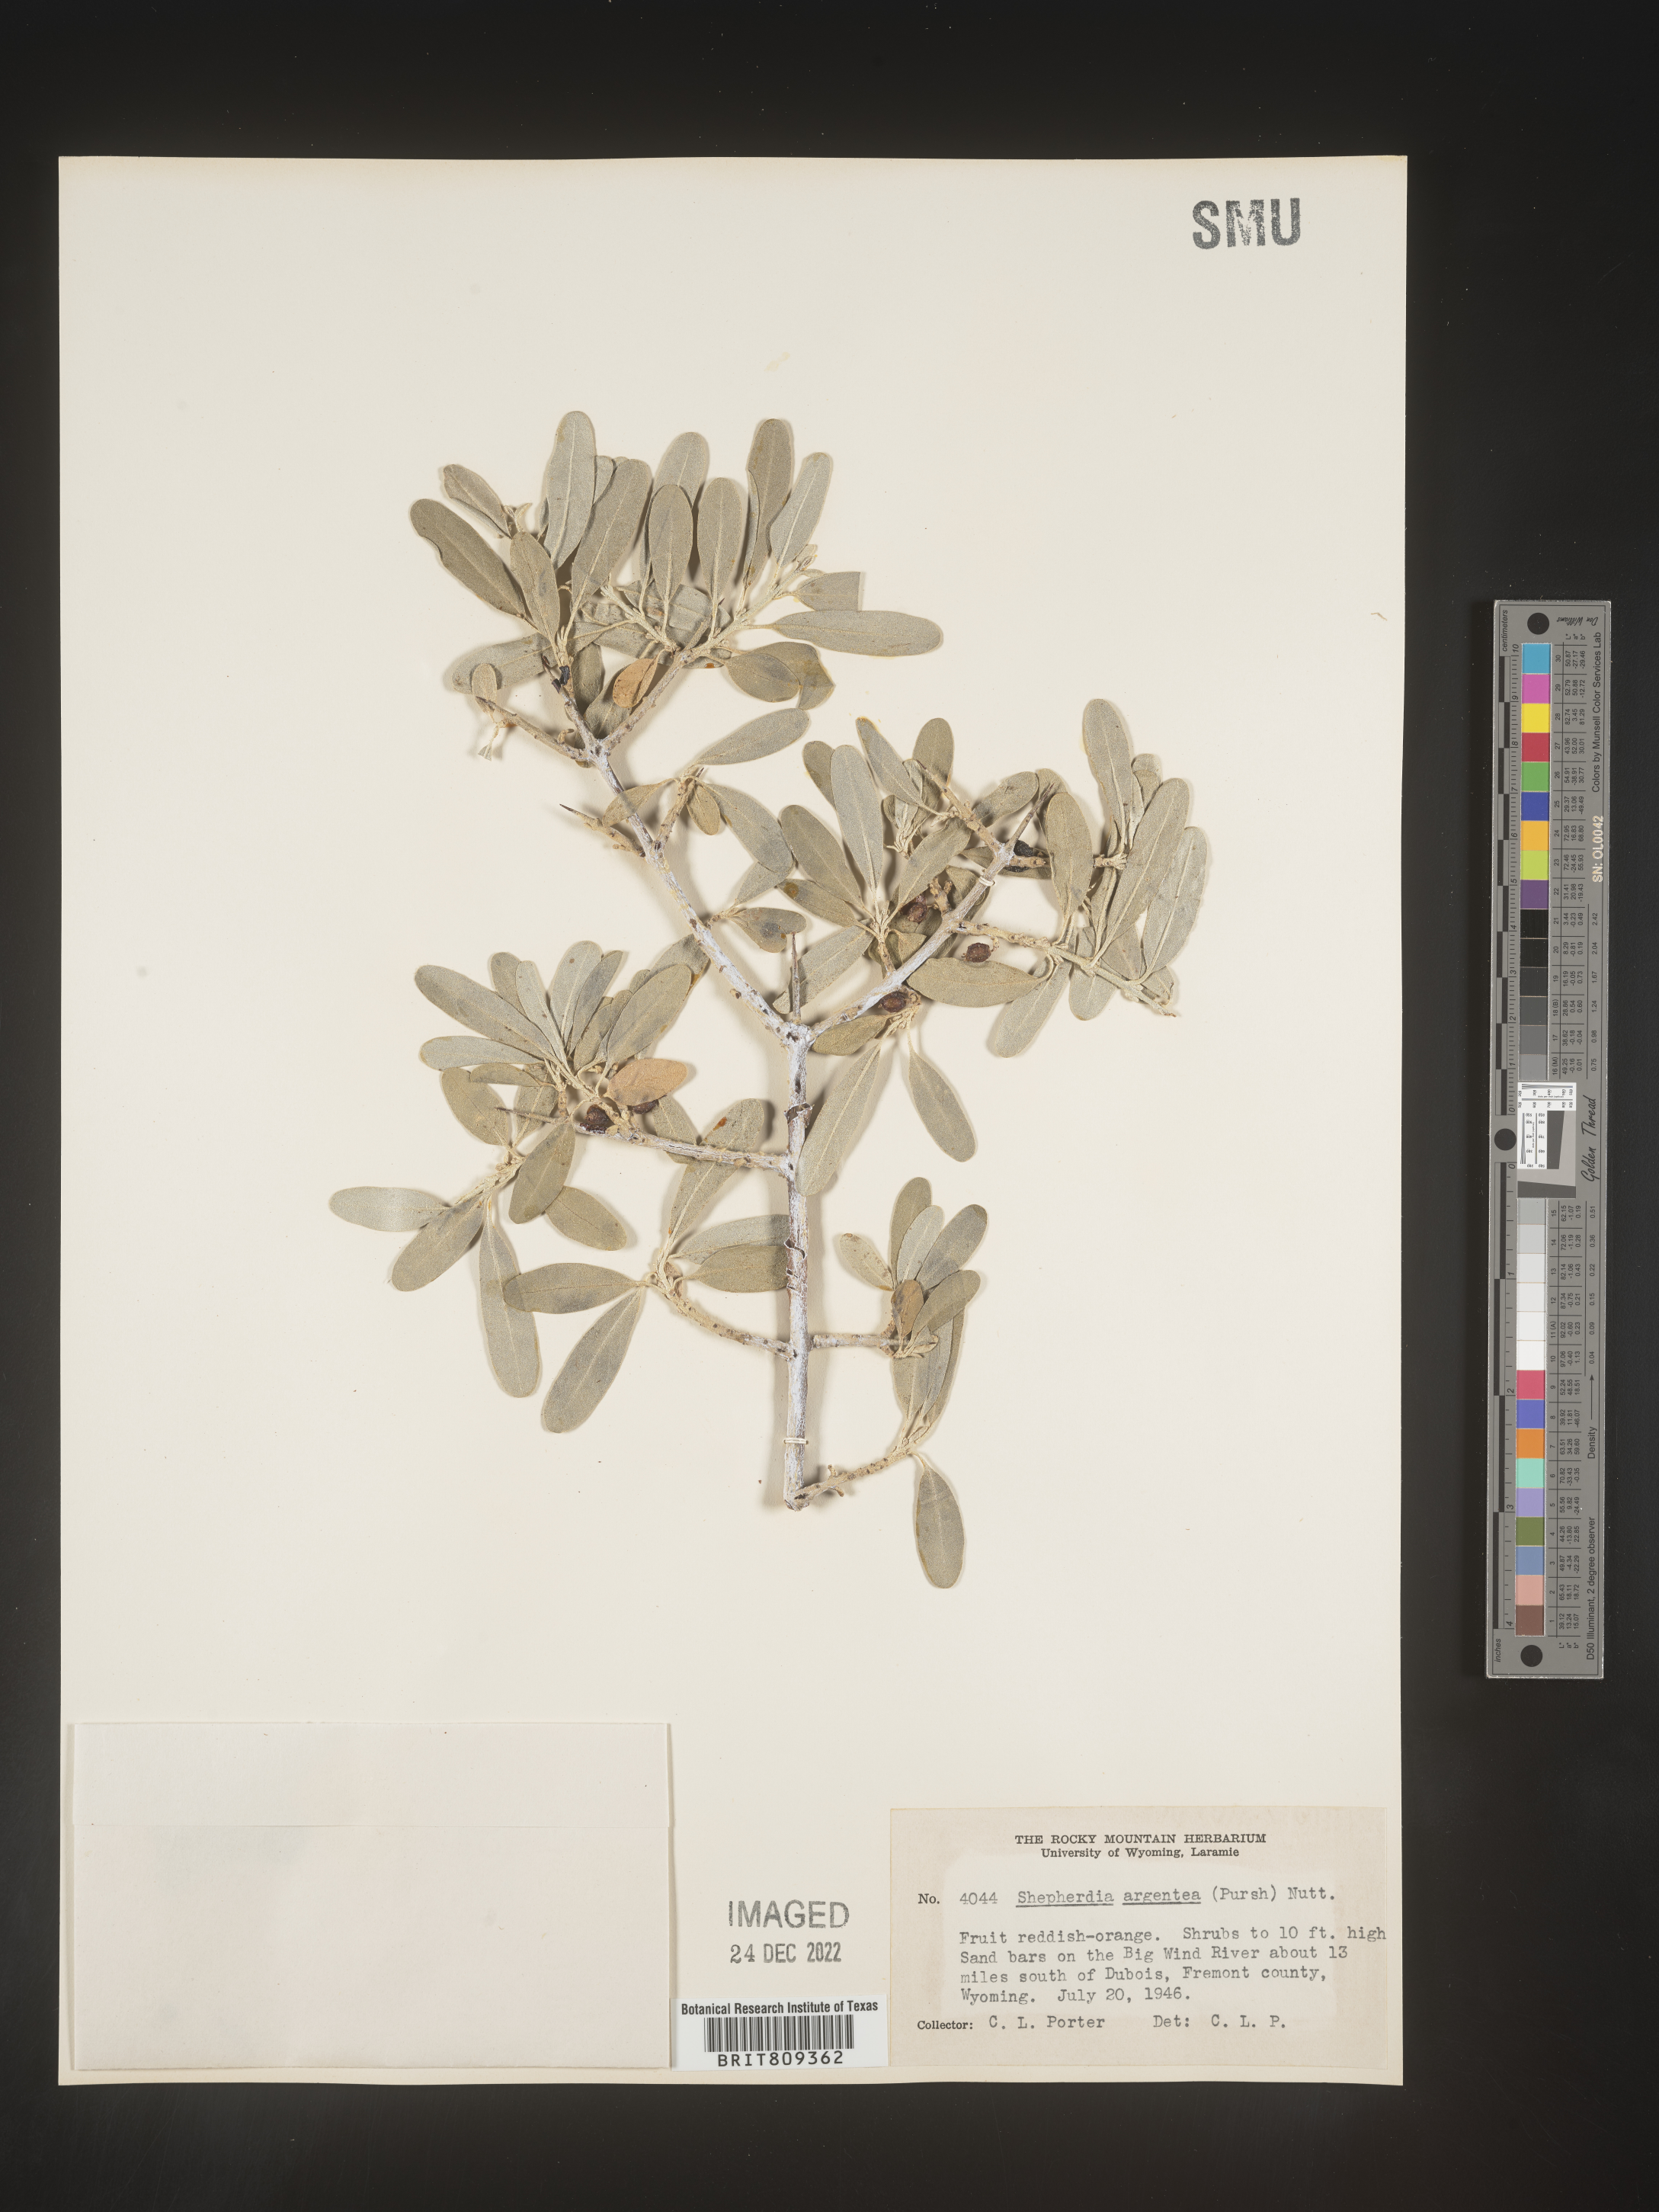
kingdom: Plantae
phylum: Tracheophyta
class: Magnoliopsida
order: Rosales
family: Elaeagnaceae
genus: Shepherdia
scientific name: Shepherdia argentea
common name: Silver buffaloberry
